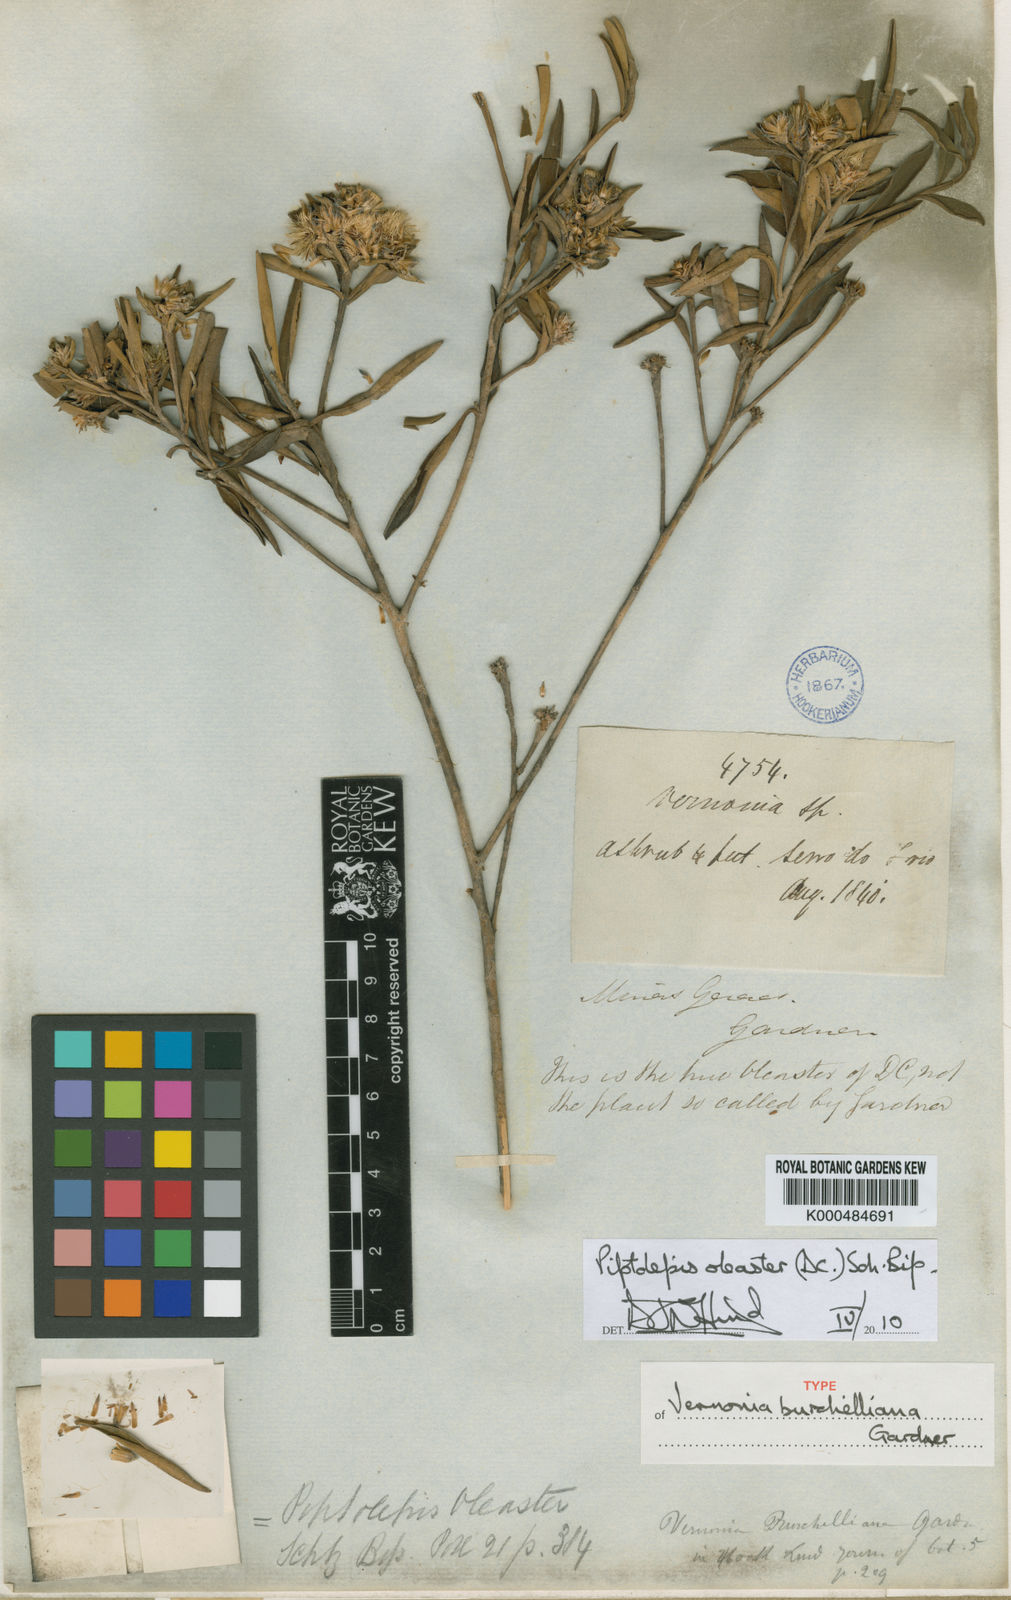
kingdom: Plantae
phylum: Tracheophyta
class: Magnoliopsida
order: Asterales
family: Asteraceae
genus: Piptolepis
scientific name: Piptolepis oleaster
